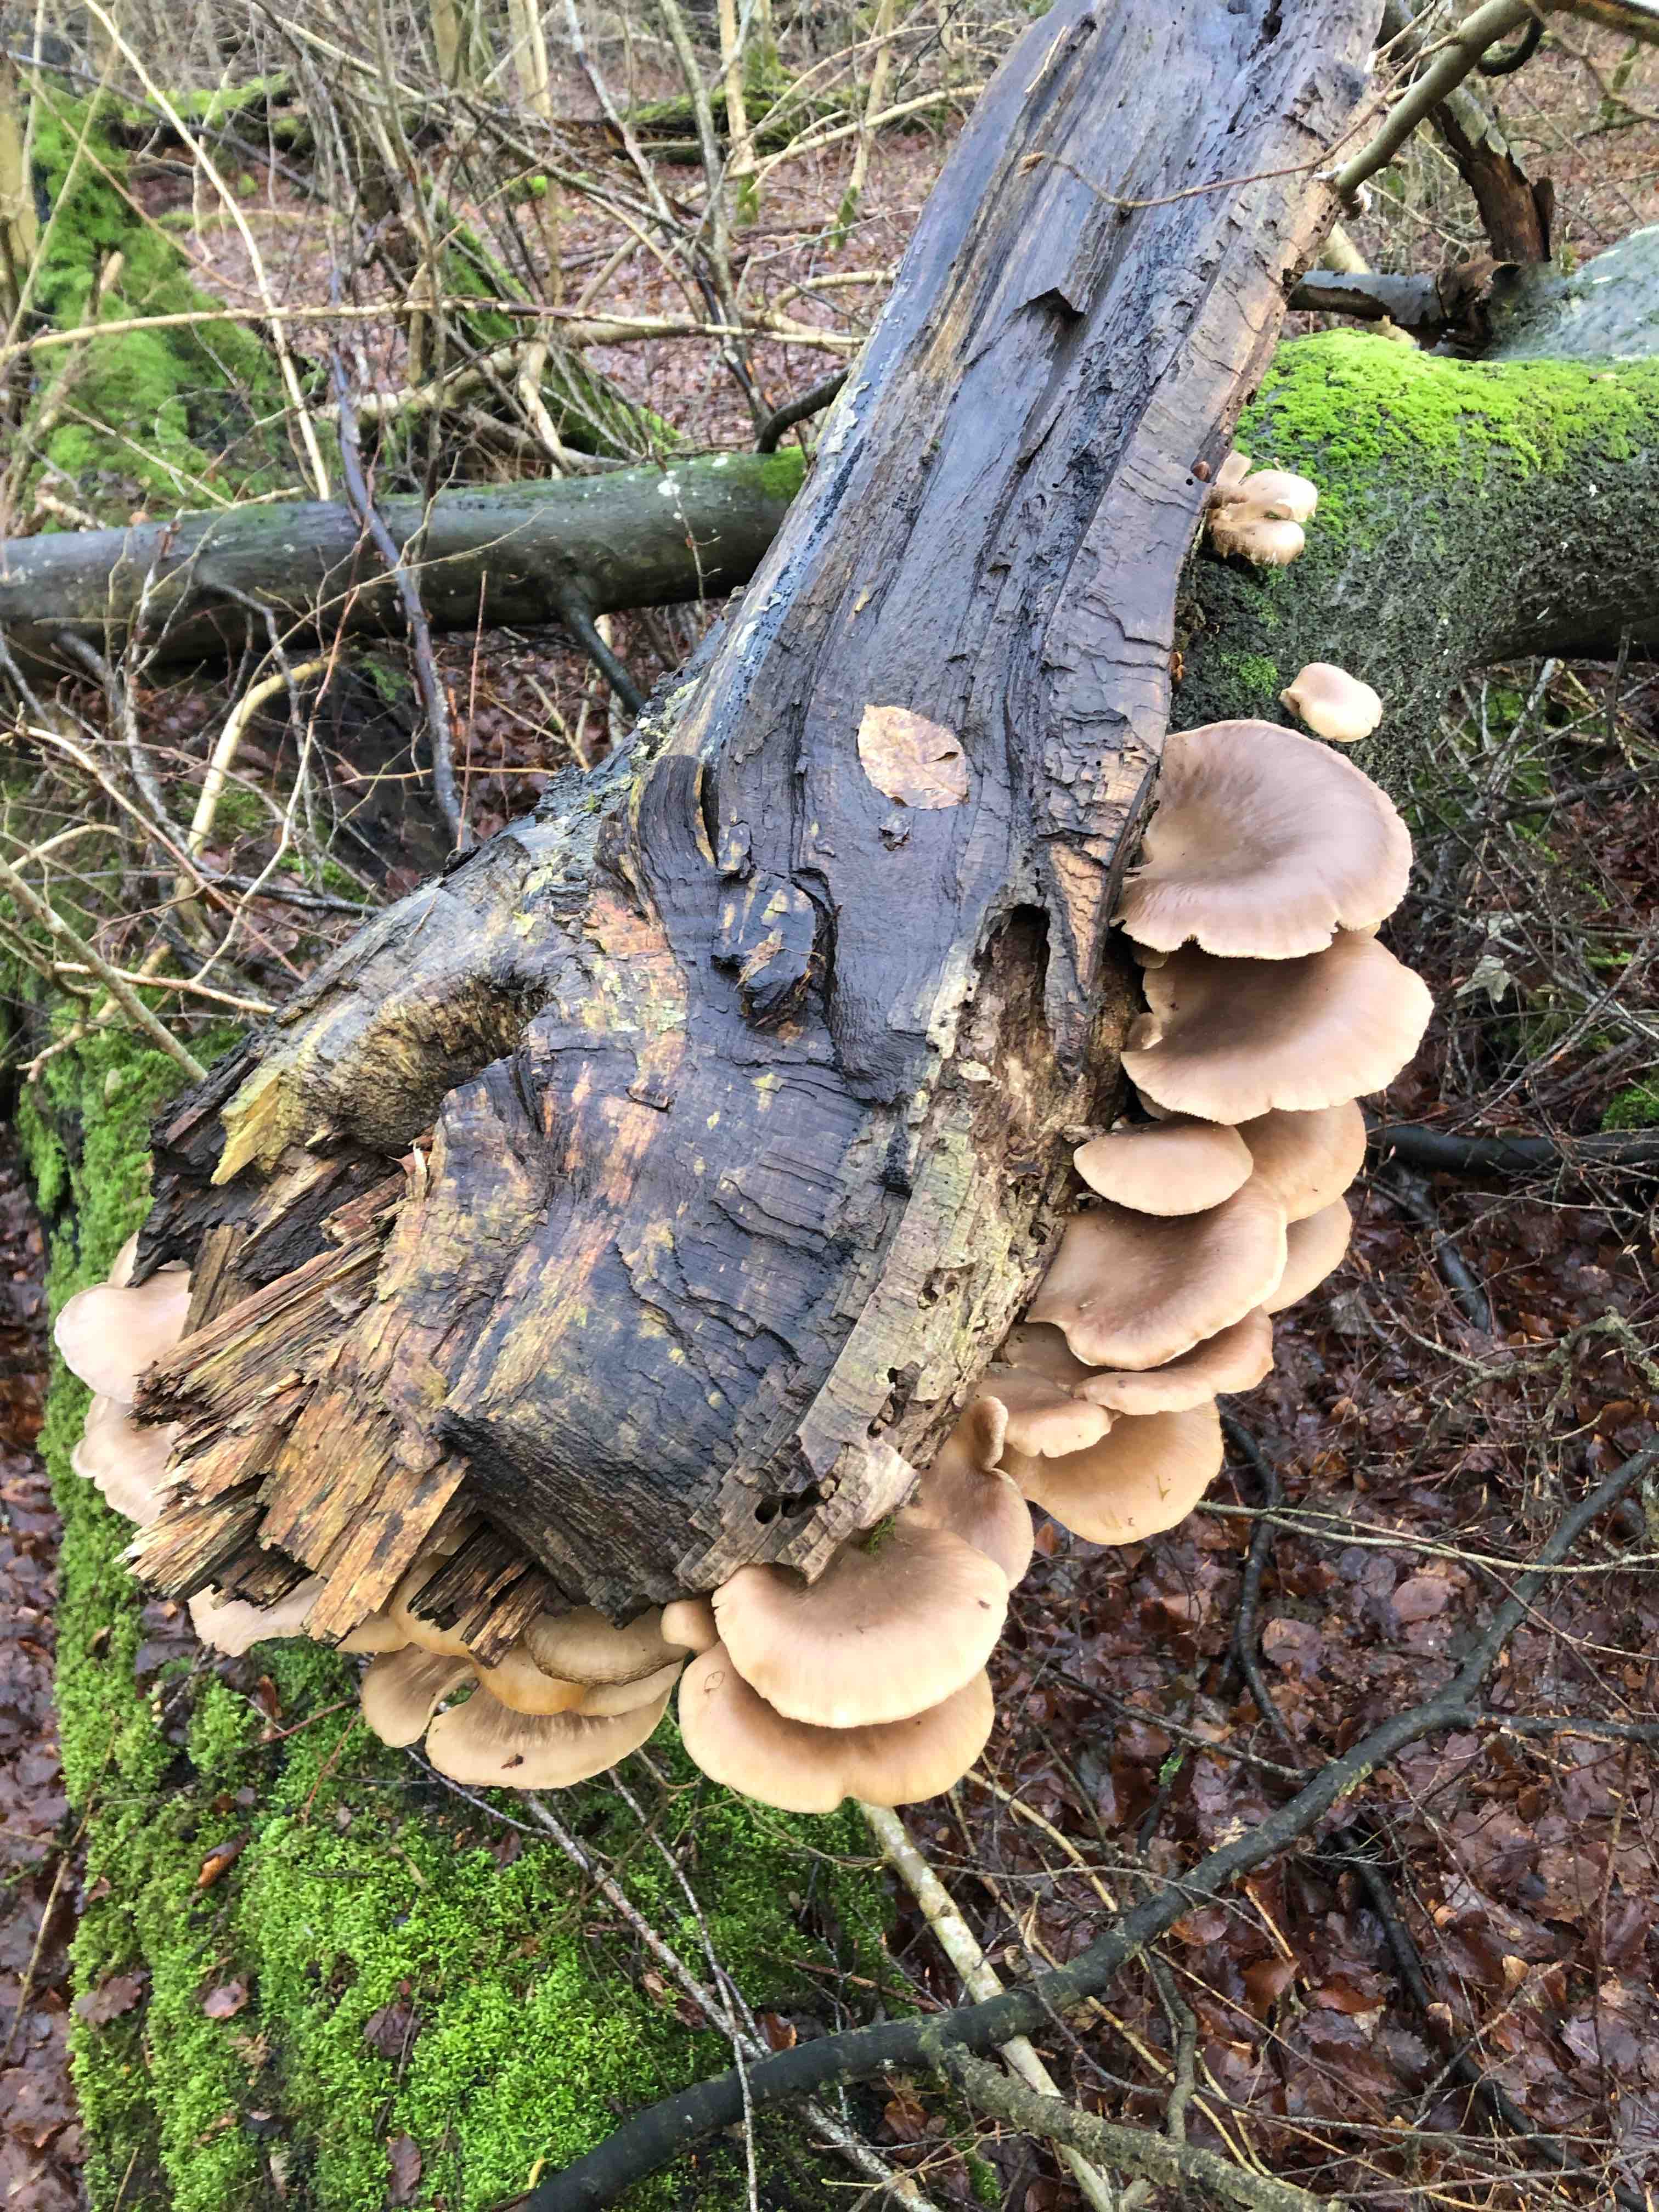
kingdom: Fungi
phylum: Basidiomycota
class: Agaricomycetes
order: Agaricales
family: Pleurotaceae
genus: Pleurotus
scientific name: Pleurotus ostreatus
